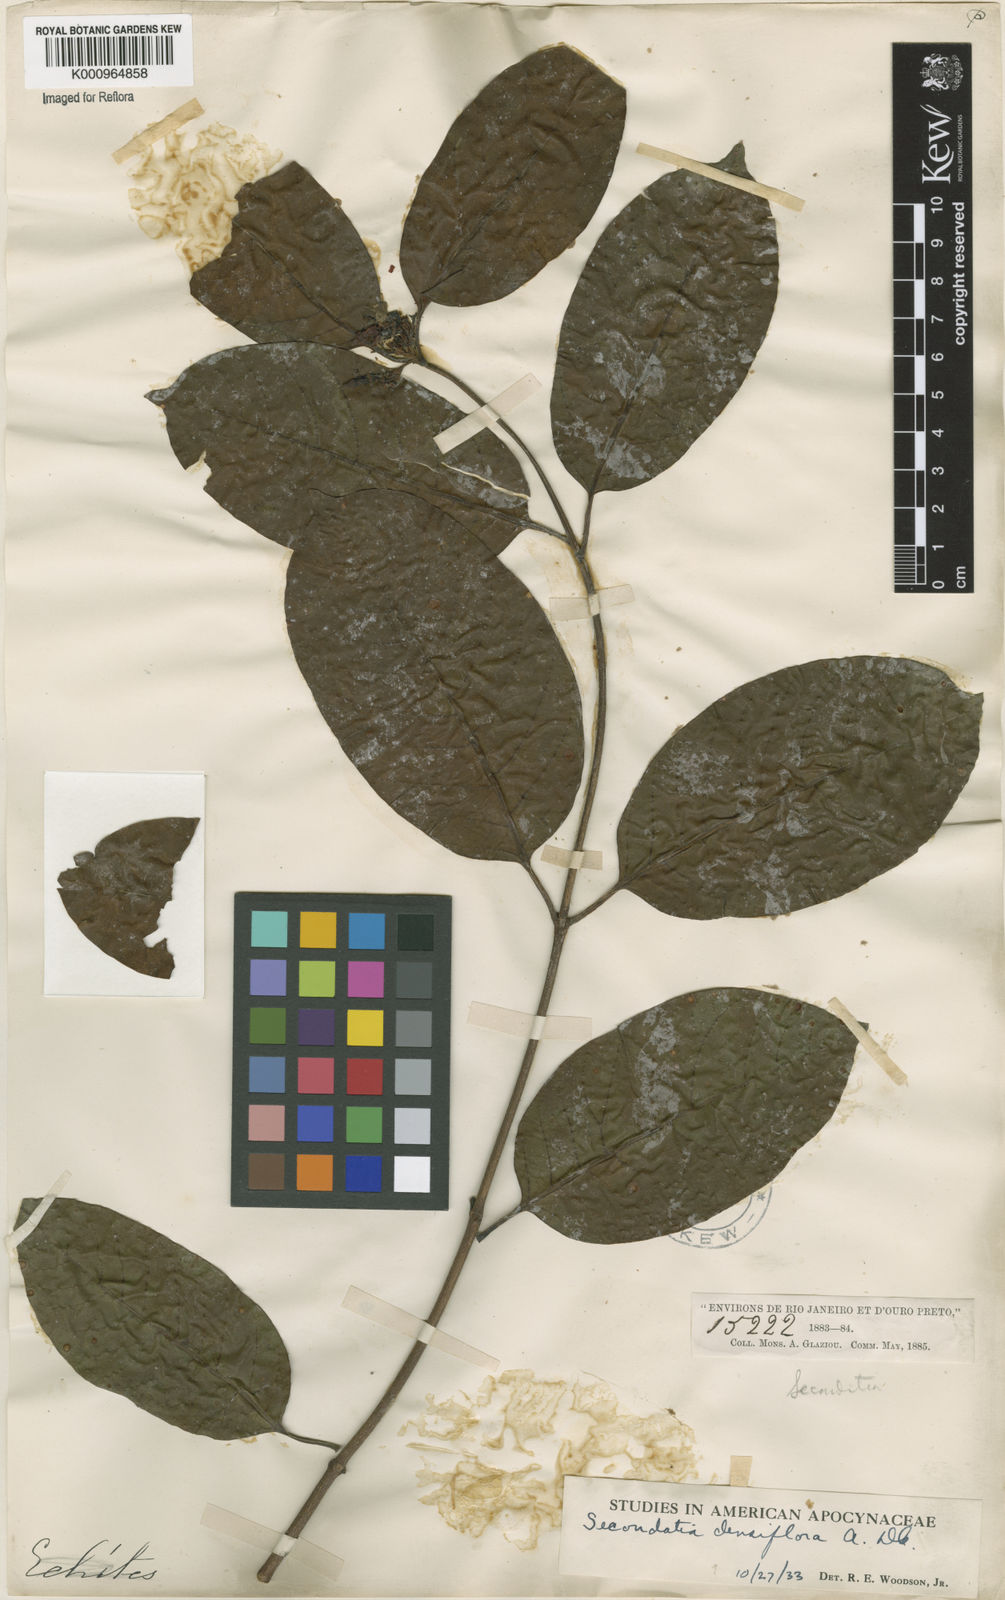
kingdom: Plantae
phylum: Tracheophyta
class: Magnoliopsida
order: Gentianales
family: Apocynaceae
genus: Secondatia
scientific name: Secondatia densiflora
